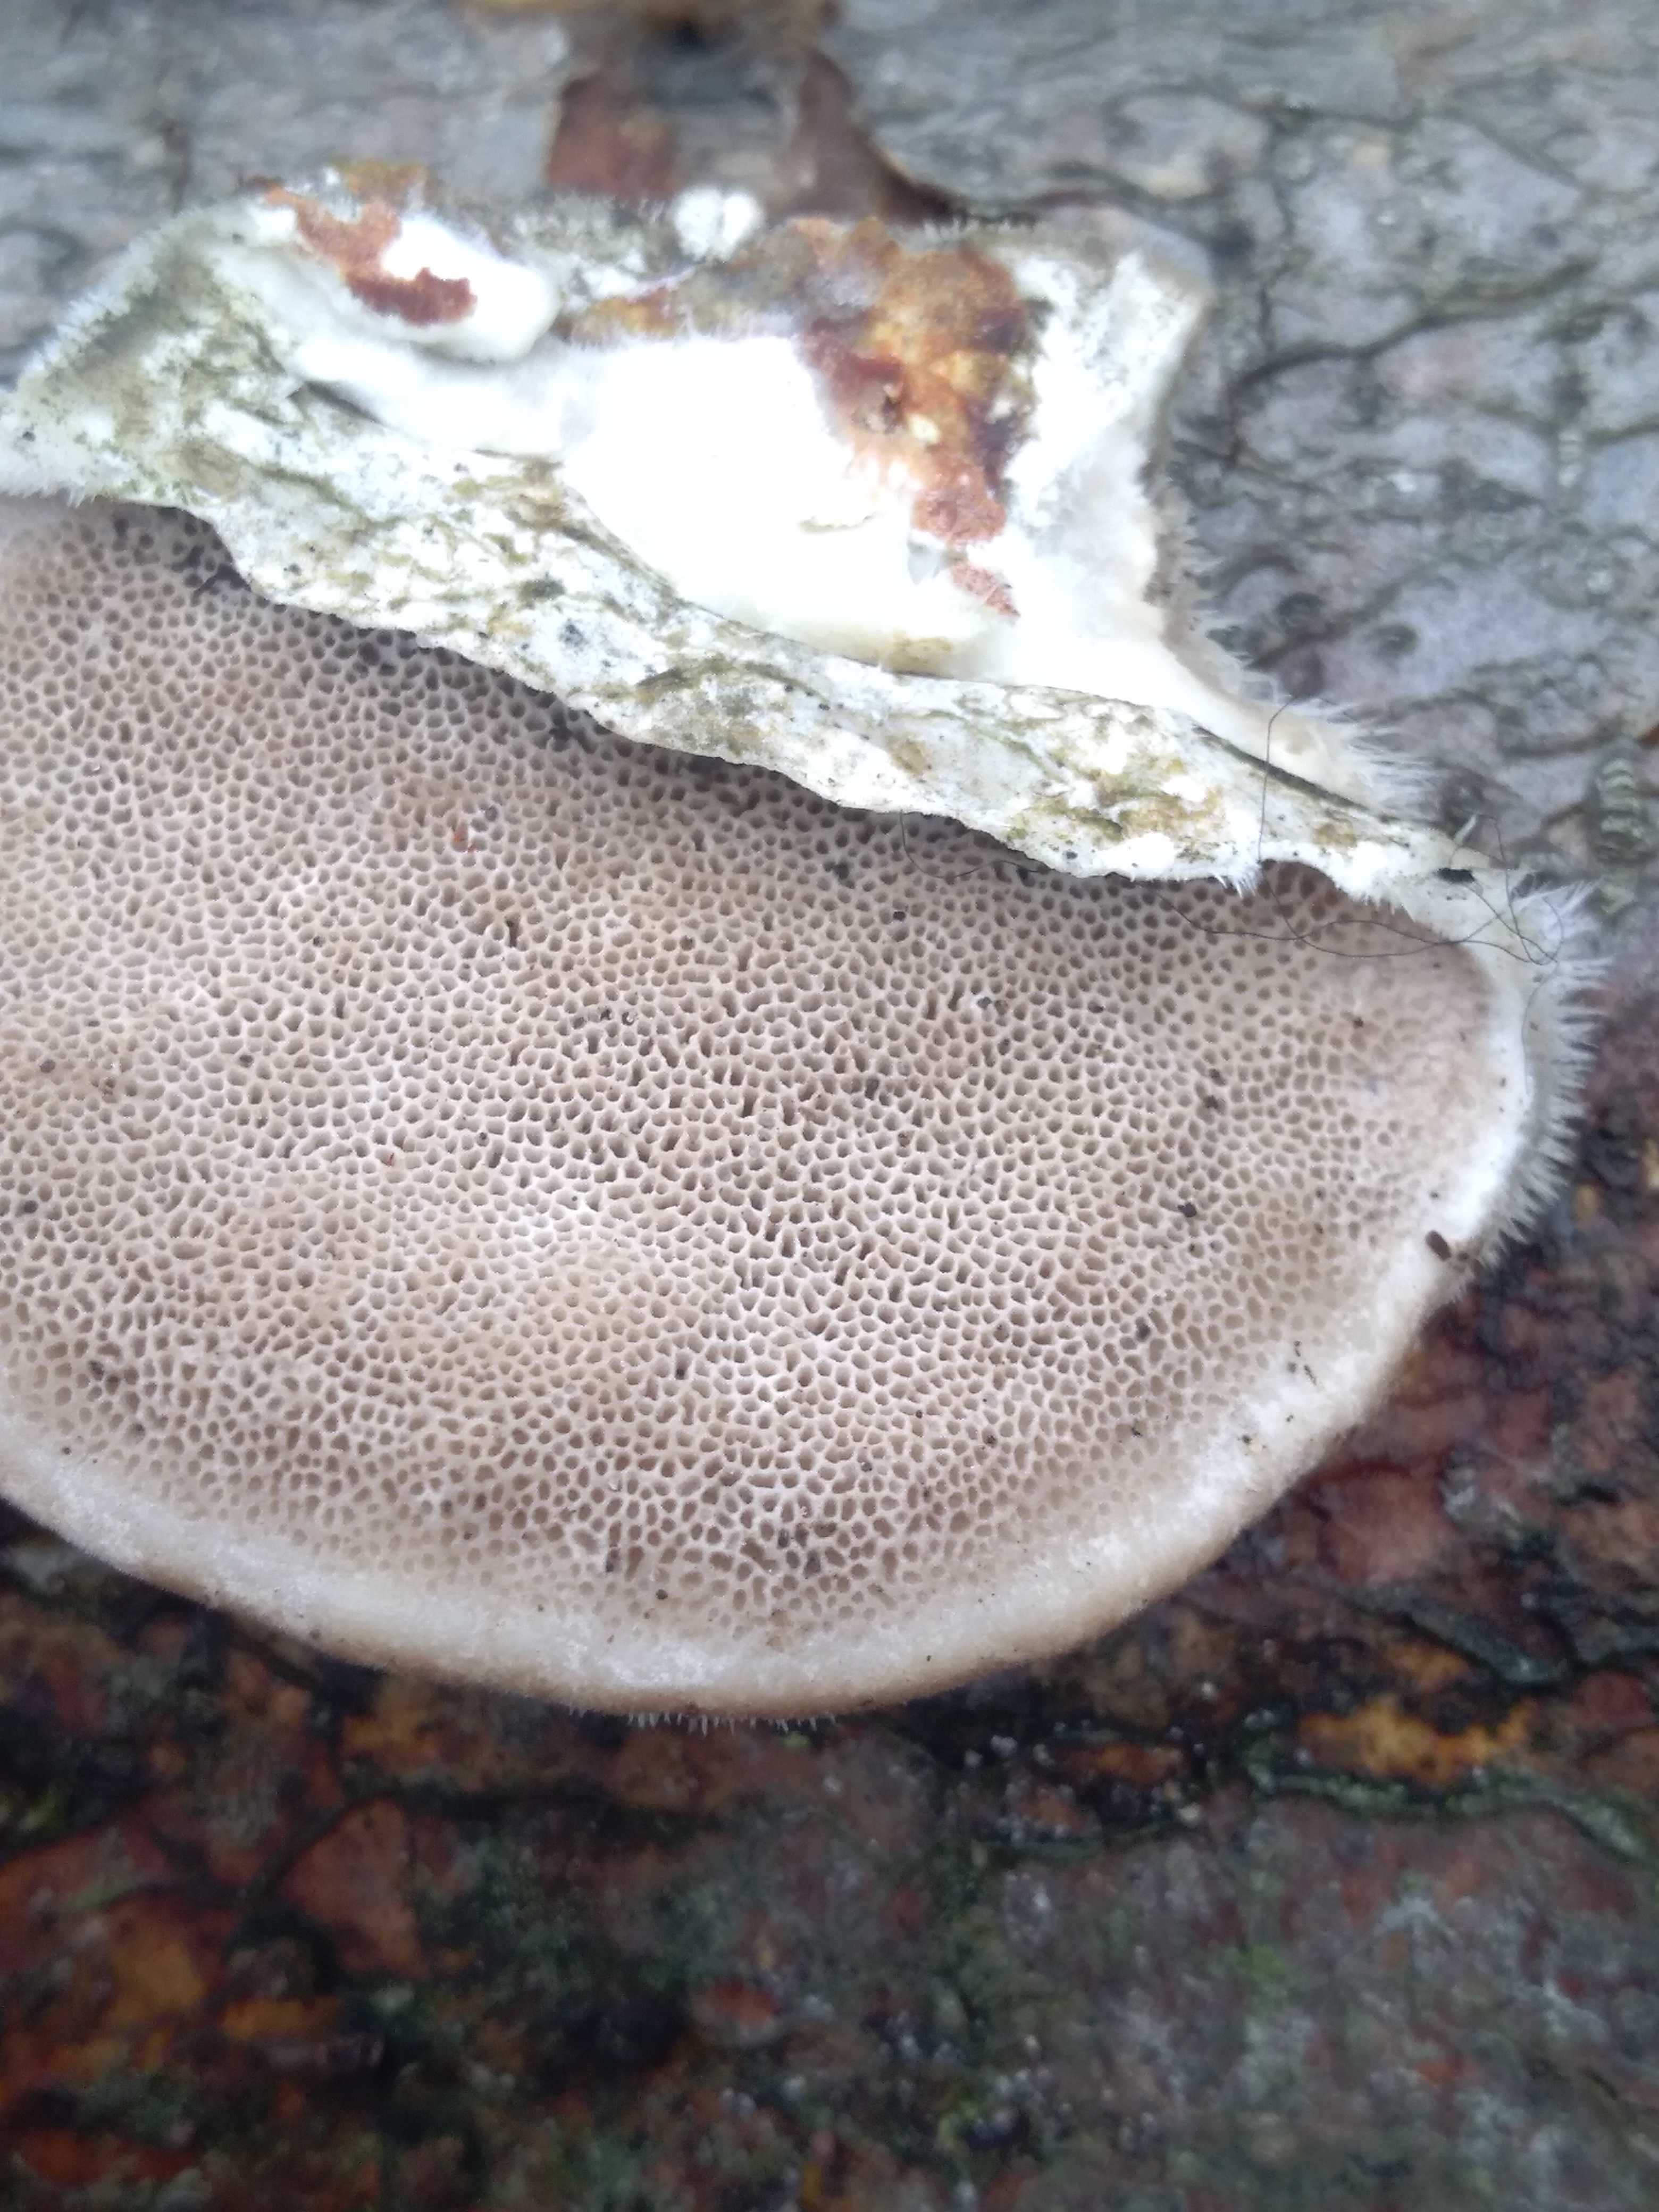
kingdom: Fungi
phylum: Basidiomycota
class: Agaricomycetes
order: Polyporales
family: Polyporaceae
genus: Trametes
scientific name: Trametes hirsuta
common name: håret læderporesvamp
